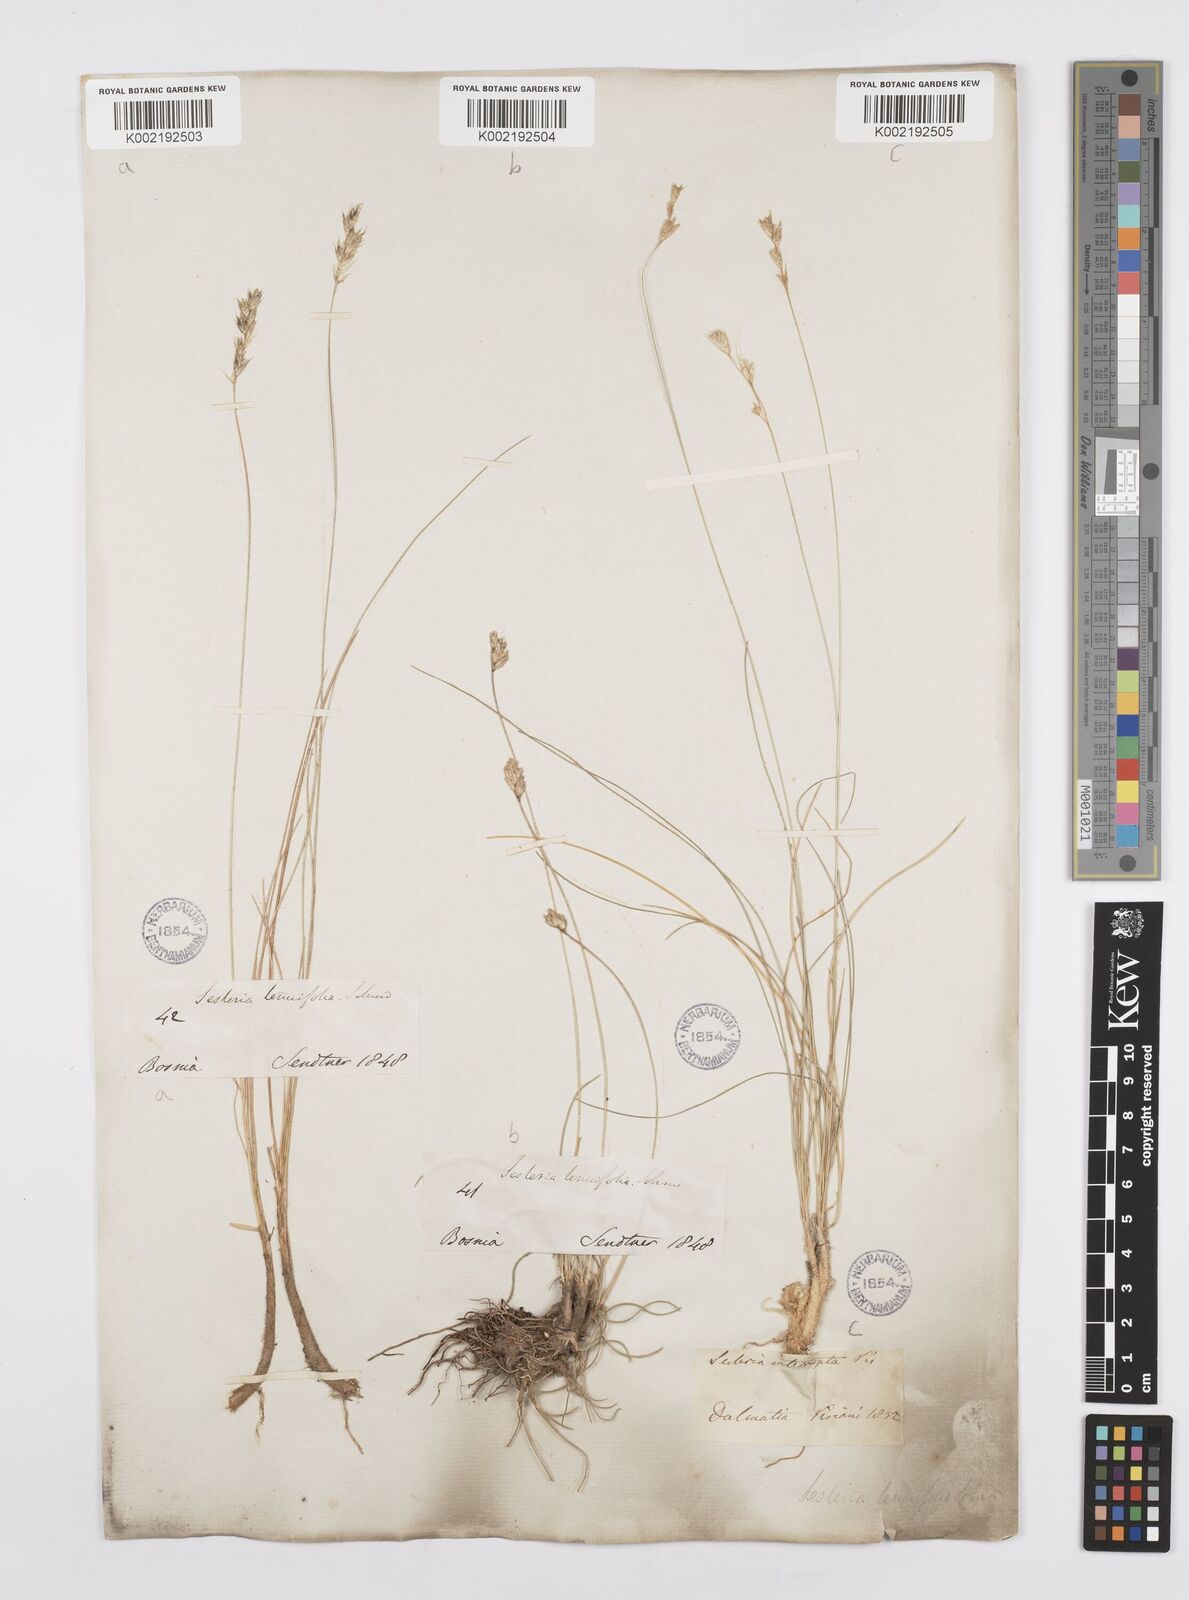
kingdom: Plantae
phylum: Tracheophyta
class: Liliopsida
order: Poales
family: Poaceae
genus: Sesleria
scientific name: Sesleria juncifolia
